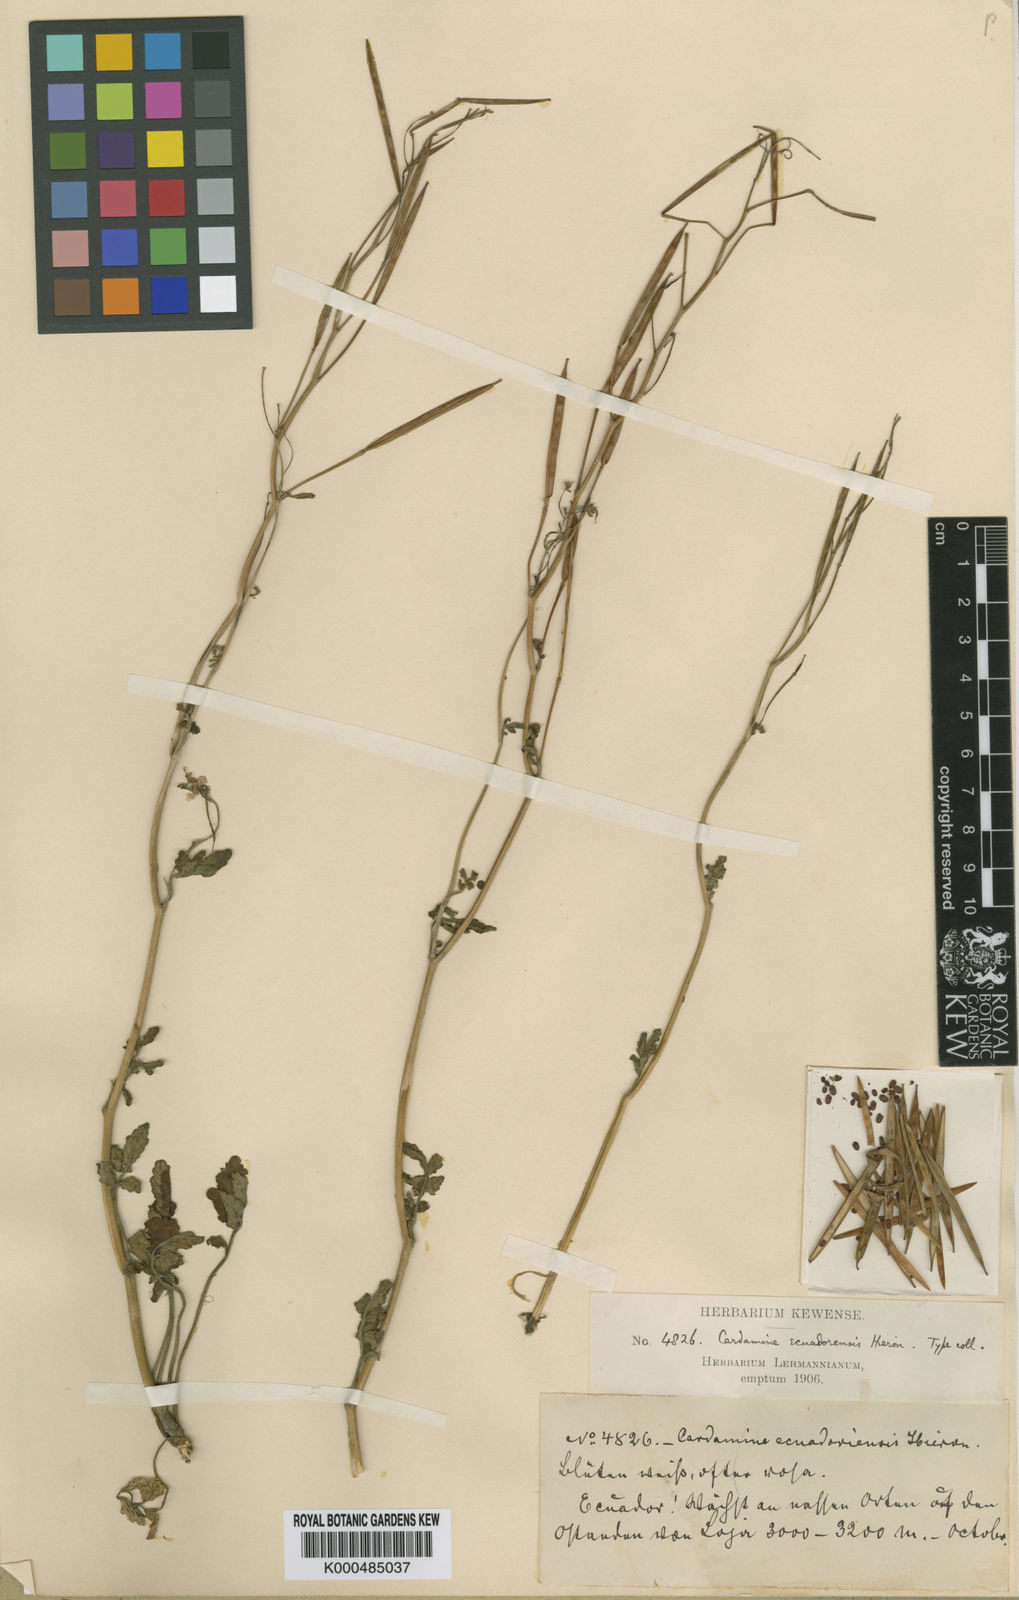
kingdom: Plantae
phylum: Tracheophyta
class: Magnoliopsida
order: Brassicales
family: Brassicaceae
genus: Cardamine
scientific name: Cardamine ovata
